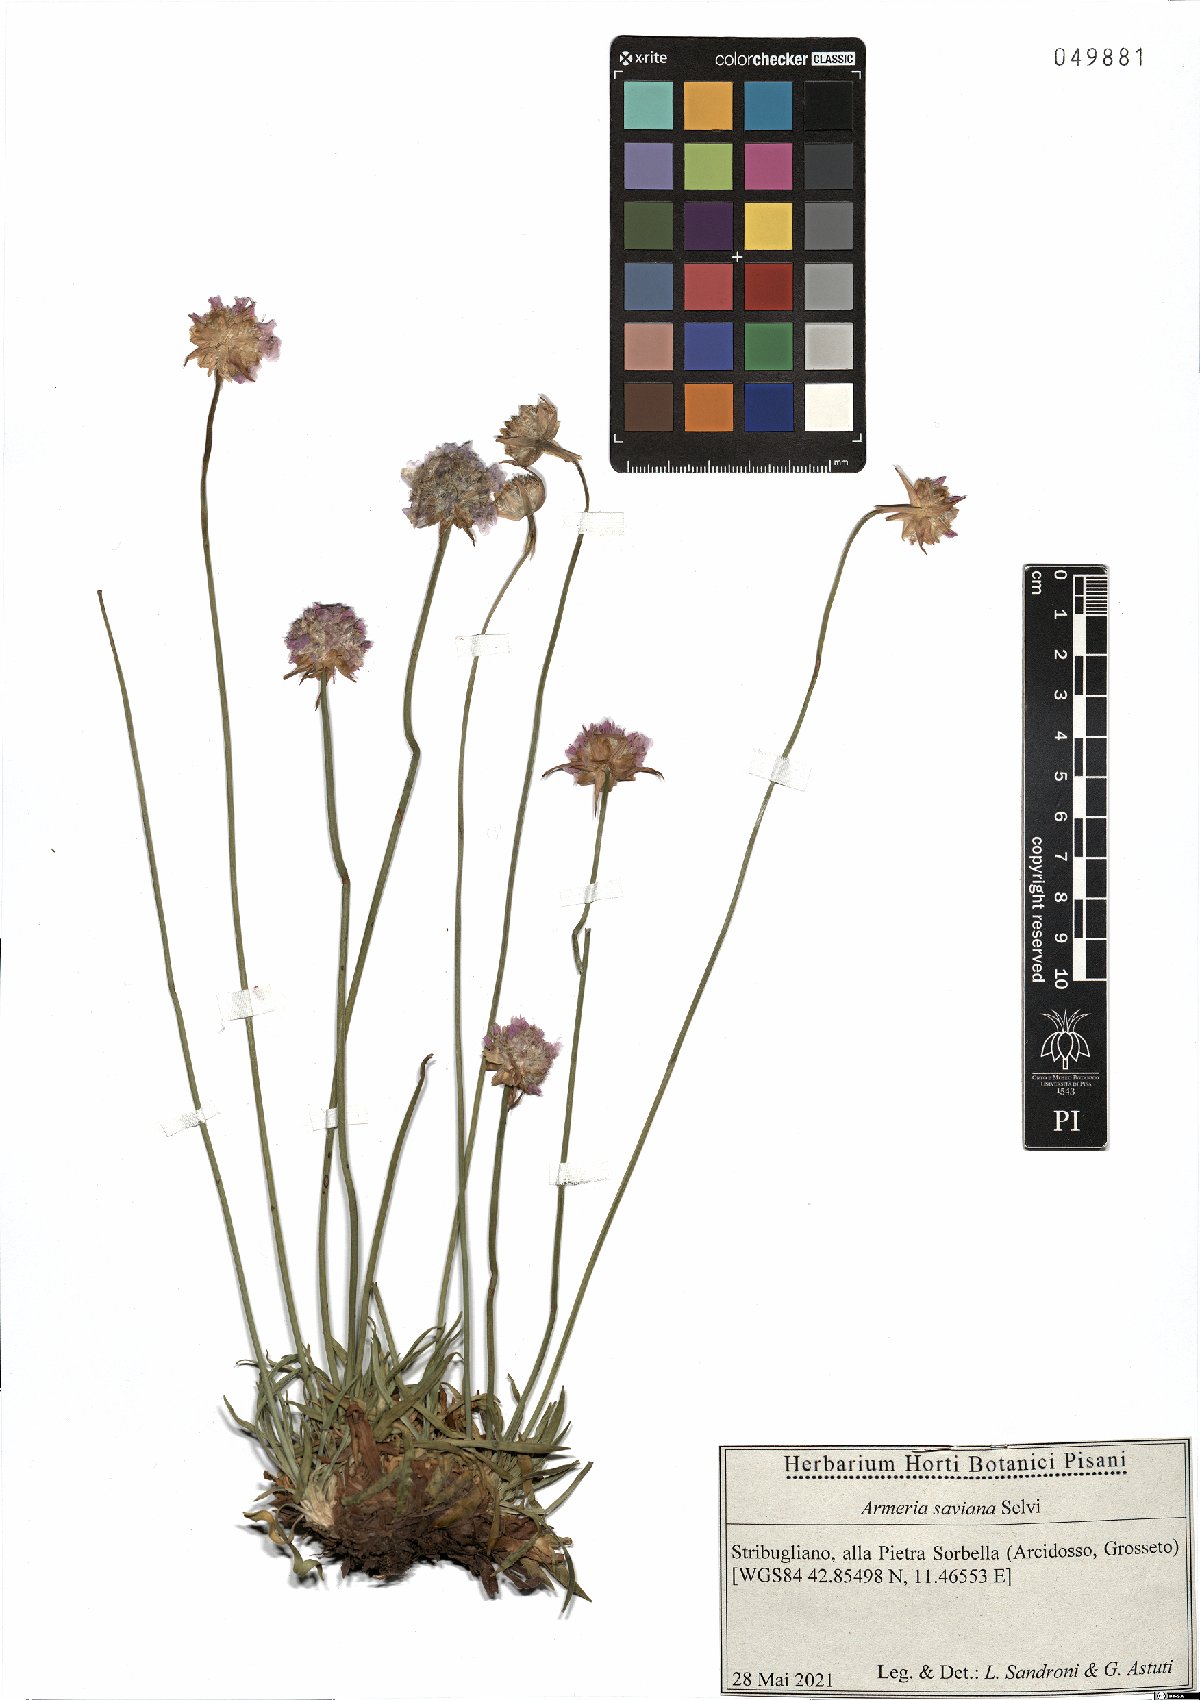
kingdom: Plantae
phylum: Tracheophyta
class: Magnoliopsida
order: Caryophyllales
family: Plumbaginaceae
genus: Armeria
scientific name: Armeria saviana
